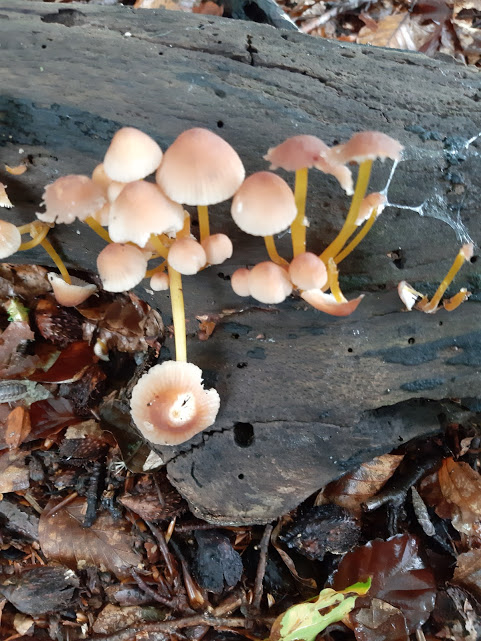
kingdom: Fungi
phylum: Basidiomycota
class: Agaricomycetes
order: Agaricales
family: Mycenaceae
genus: Mycena
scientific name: Mycena renati
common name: smuk huesvamp
